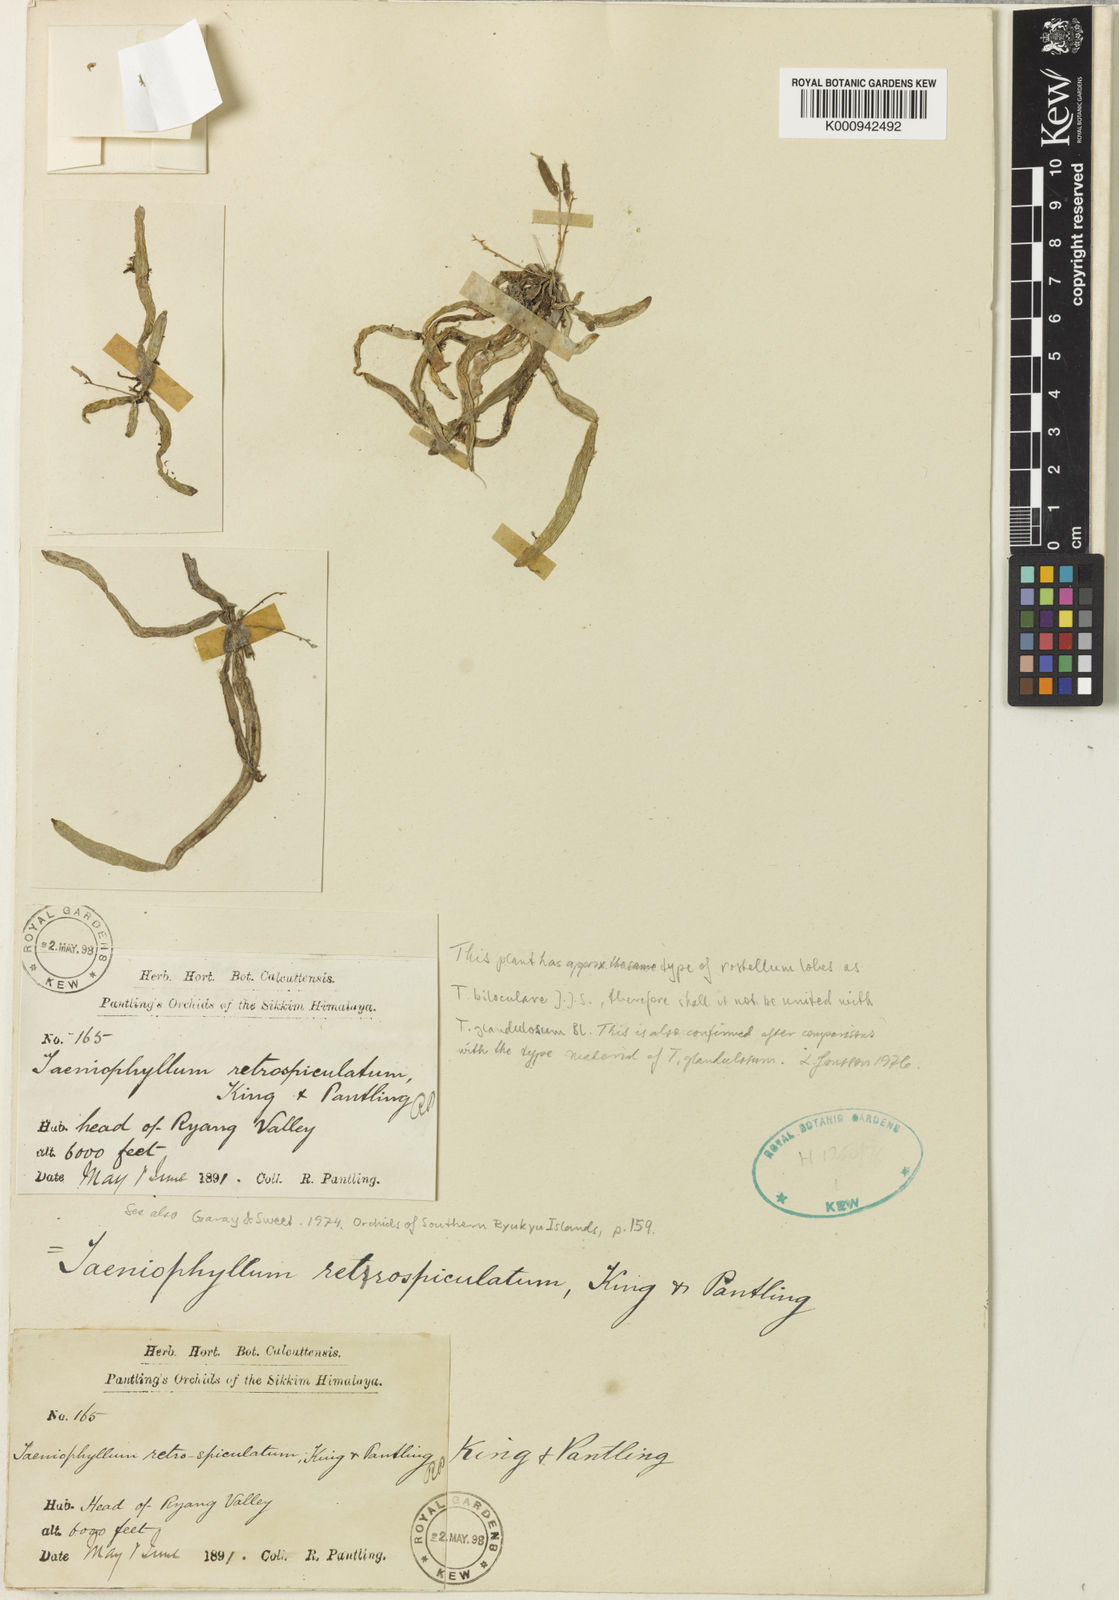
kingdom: Plantae
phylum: Tracheophyta
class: Liliopsida
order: Asparagales
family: Orchidaceae
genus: Taeniophyllum
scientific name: Taeniophyllum retrospiculatum
